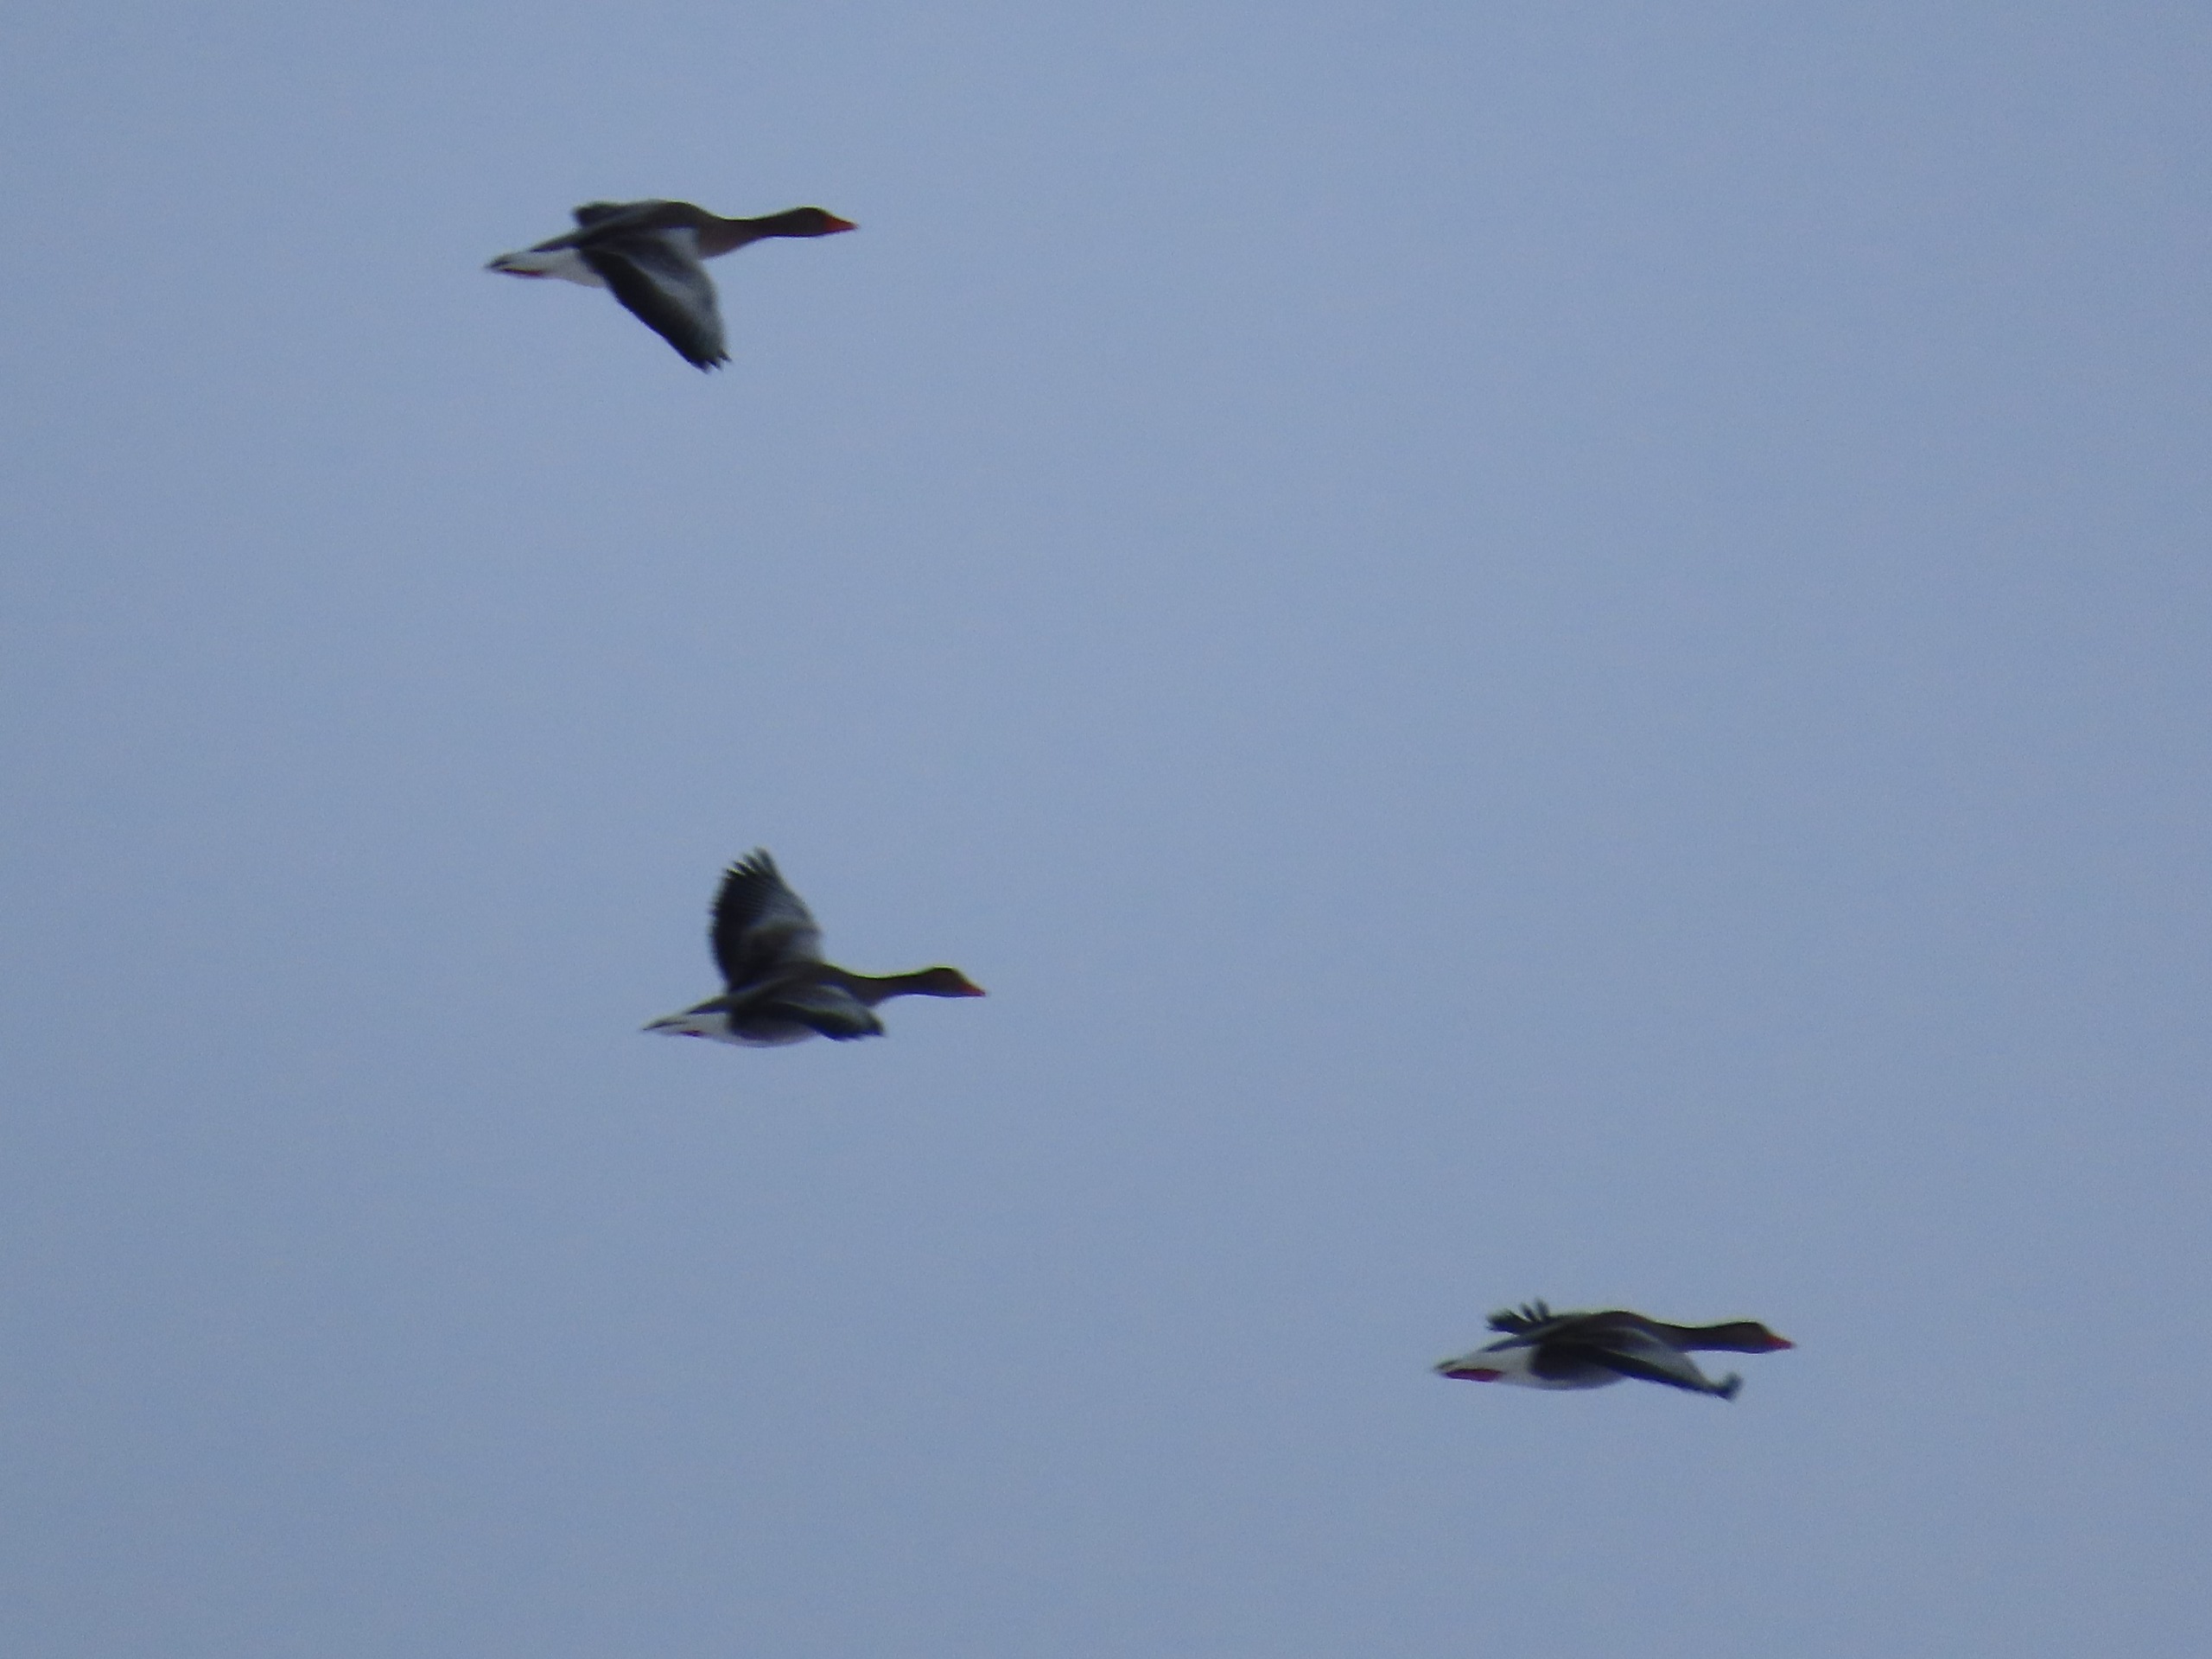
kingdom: Animalia
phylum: Chordata
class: Aves
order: Anseriformes
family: Anatidae
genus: Anser
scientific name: Anser anser
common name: Grågås
